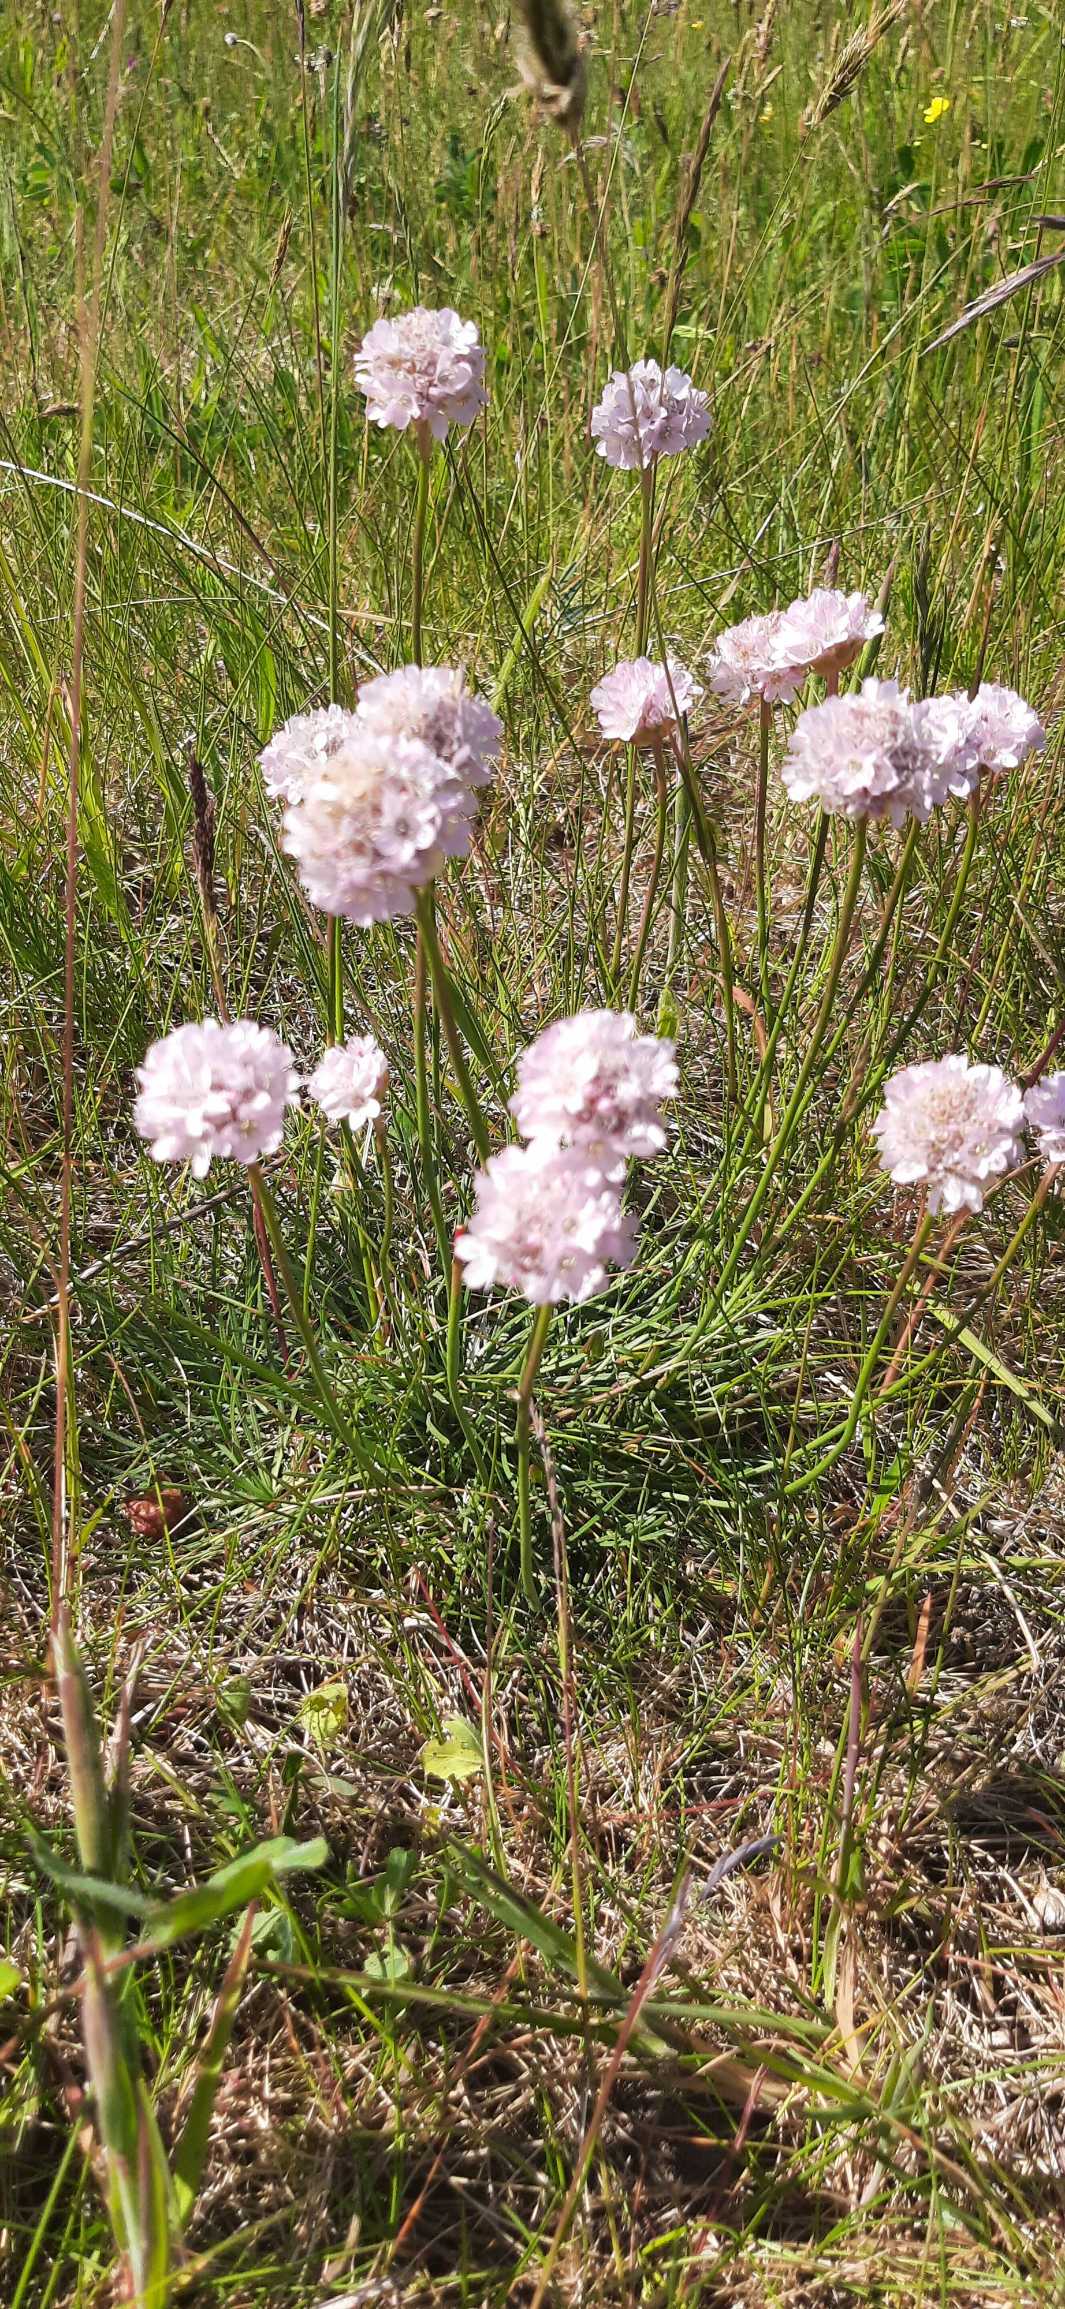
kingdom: Plantae
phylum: Tracheophyta
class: Magnoliopsida
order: Caryophyllales
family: Plumbaginaceae
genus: Armeria
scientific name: Armeria maritima
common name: Engelskgræs
